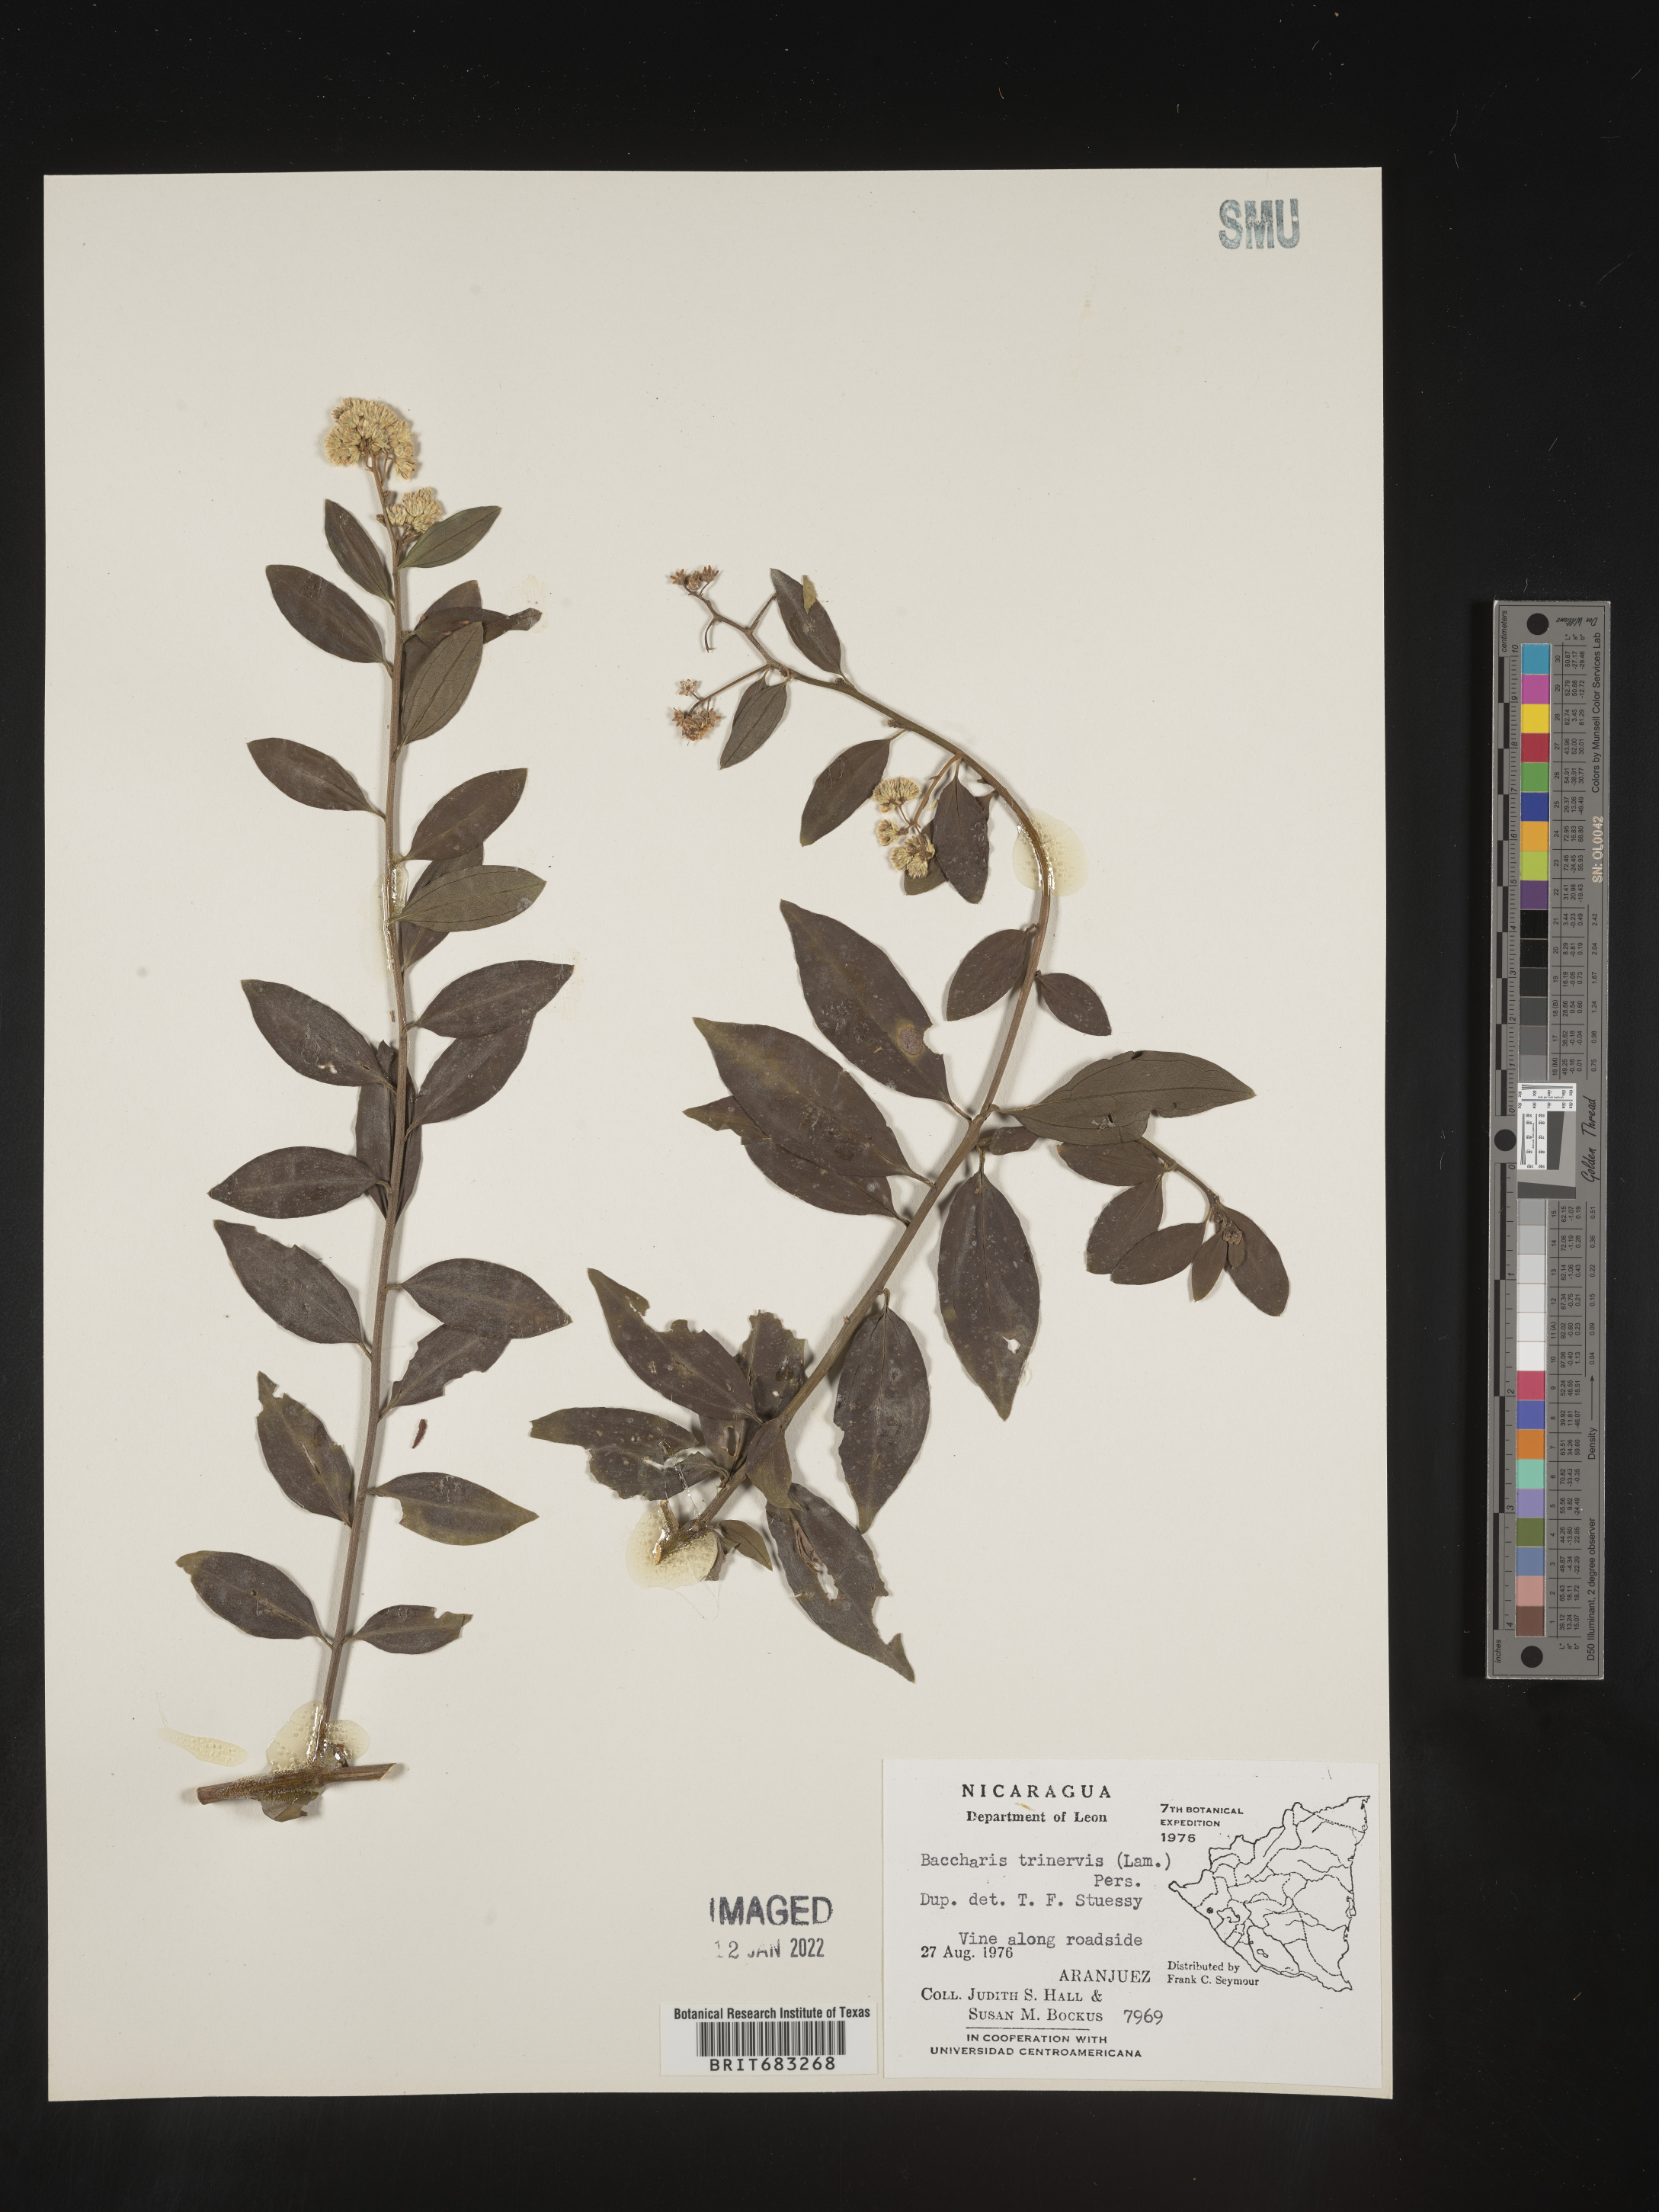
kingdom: Plantae
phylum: Tracheophyta
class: Magnoliopsida
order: Asterales
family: Asteraceae
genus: Baccharis
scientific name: Baccharis trinervis
